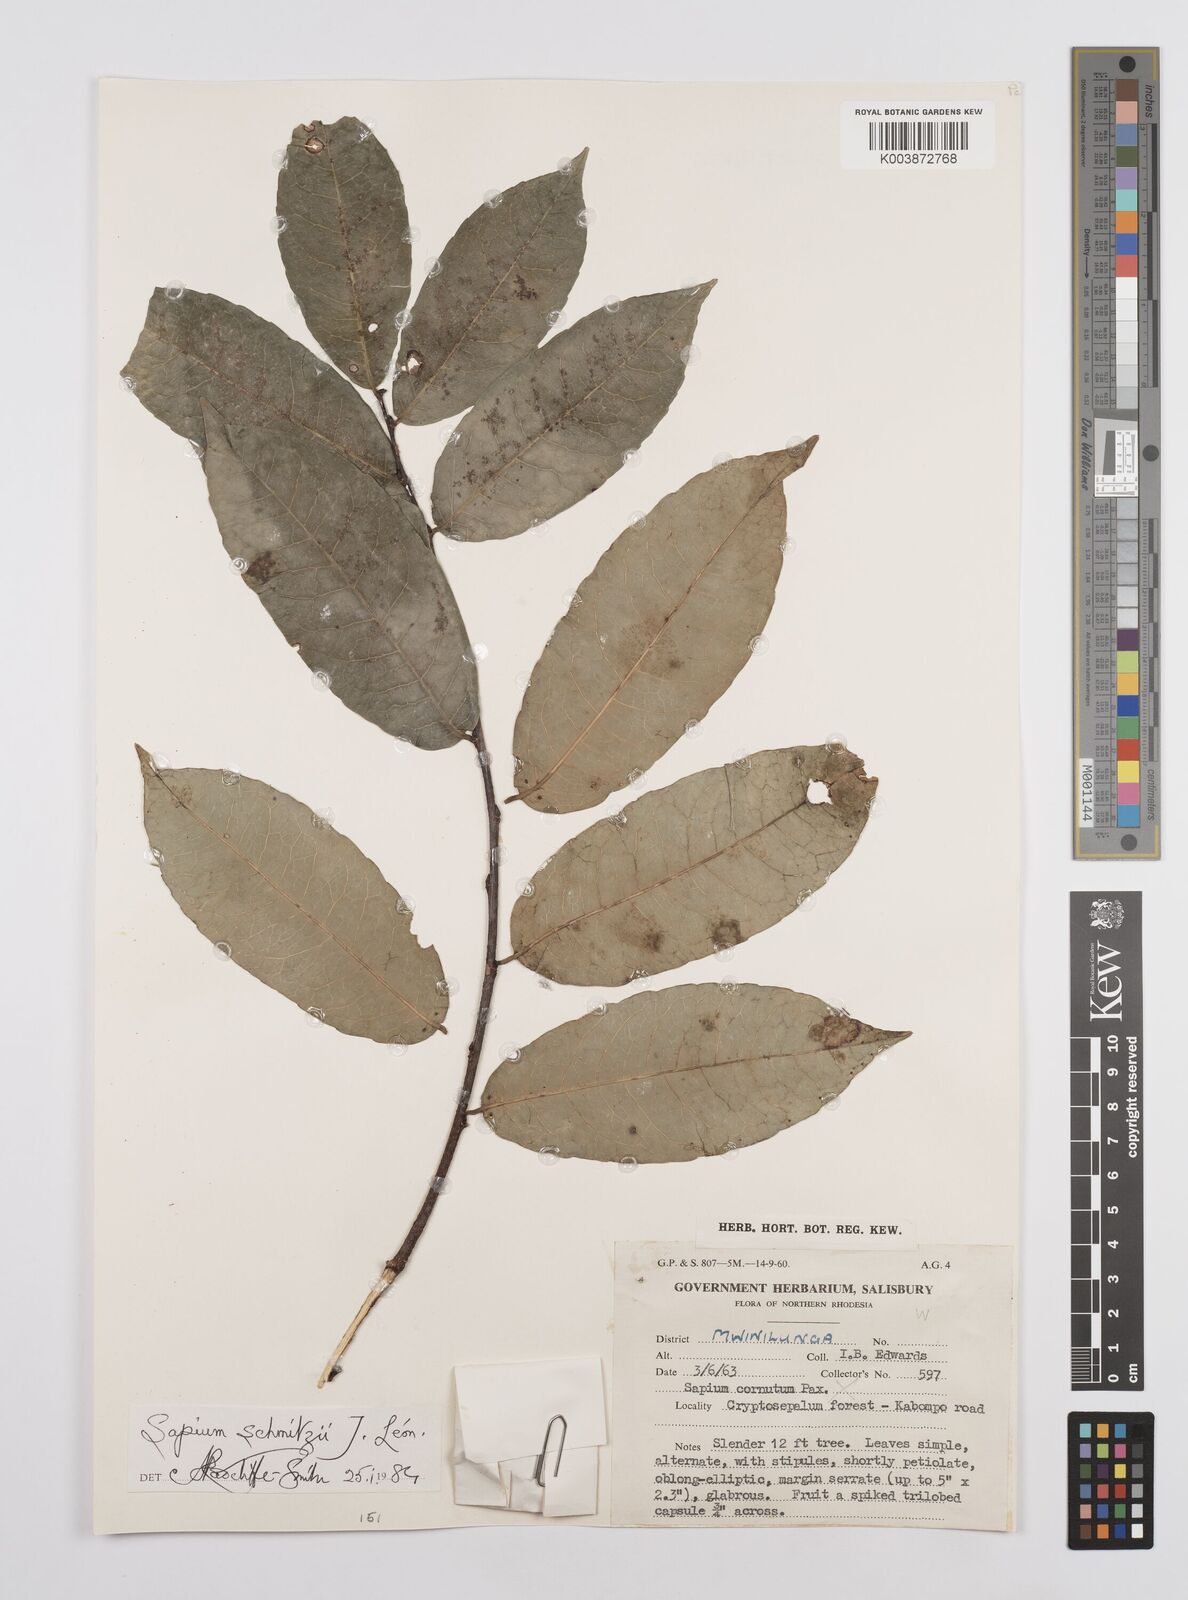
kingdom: Plantae
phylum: Tracheophyta
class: Magnoliopsida
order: Malpighiales
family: Euphorbiaceae
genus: Sclerocroton
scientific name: Sclerocroton schmitzii
